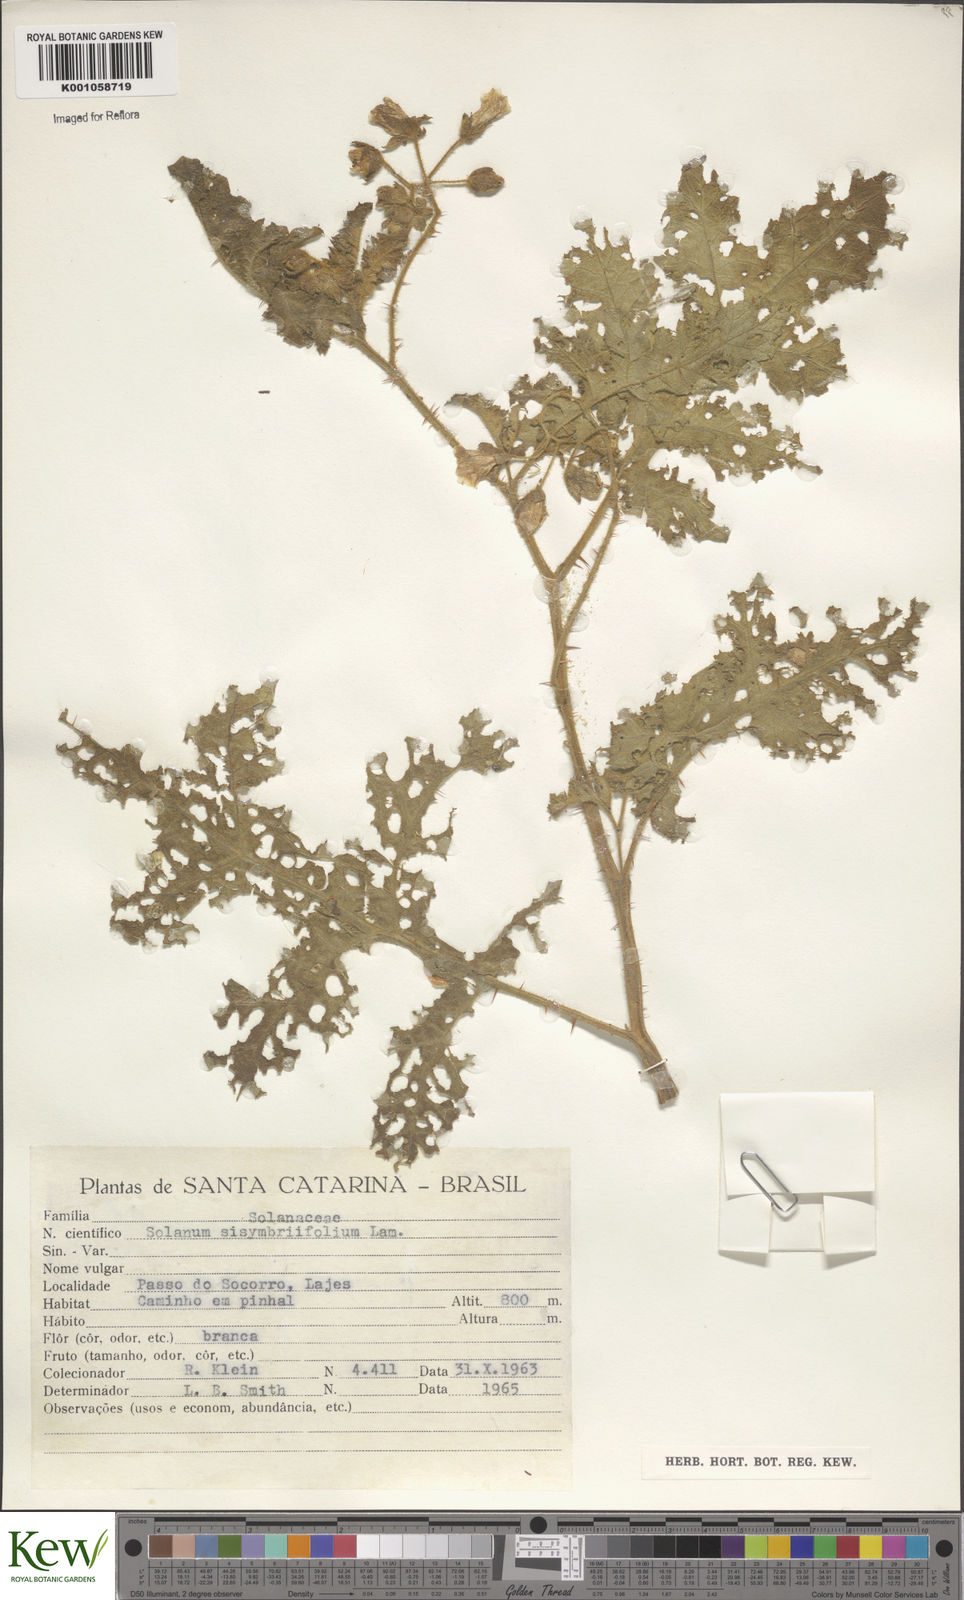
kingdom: Plantae
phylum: Tracheophyta
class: Magnoliopsida
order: Solanales
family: Solanaceae
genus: Solanum
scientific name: Solanum sisymbriifolium
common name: Red buffalo-bur
